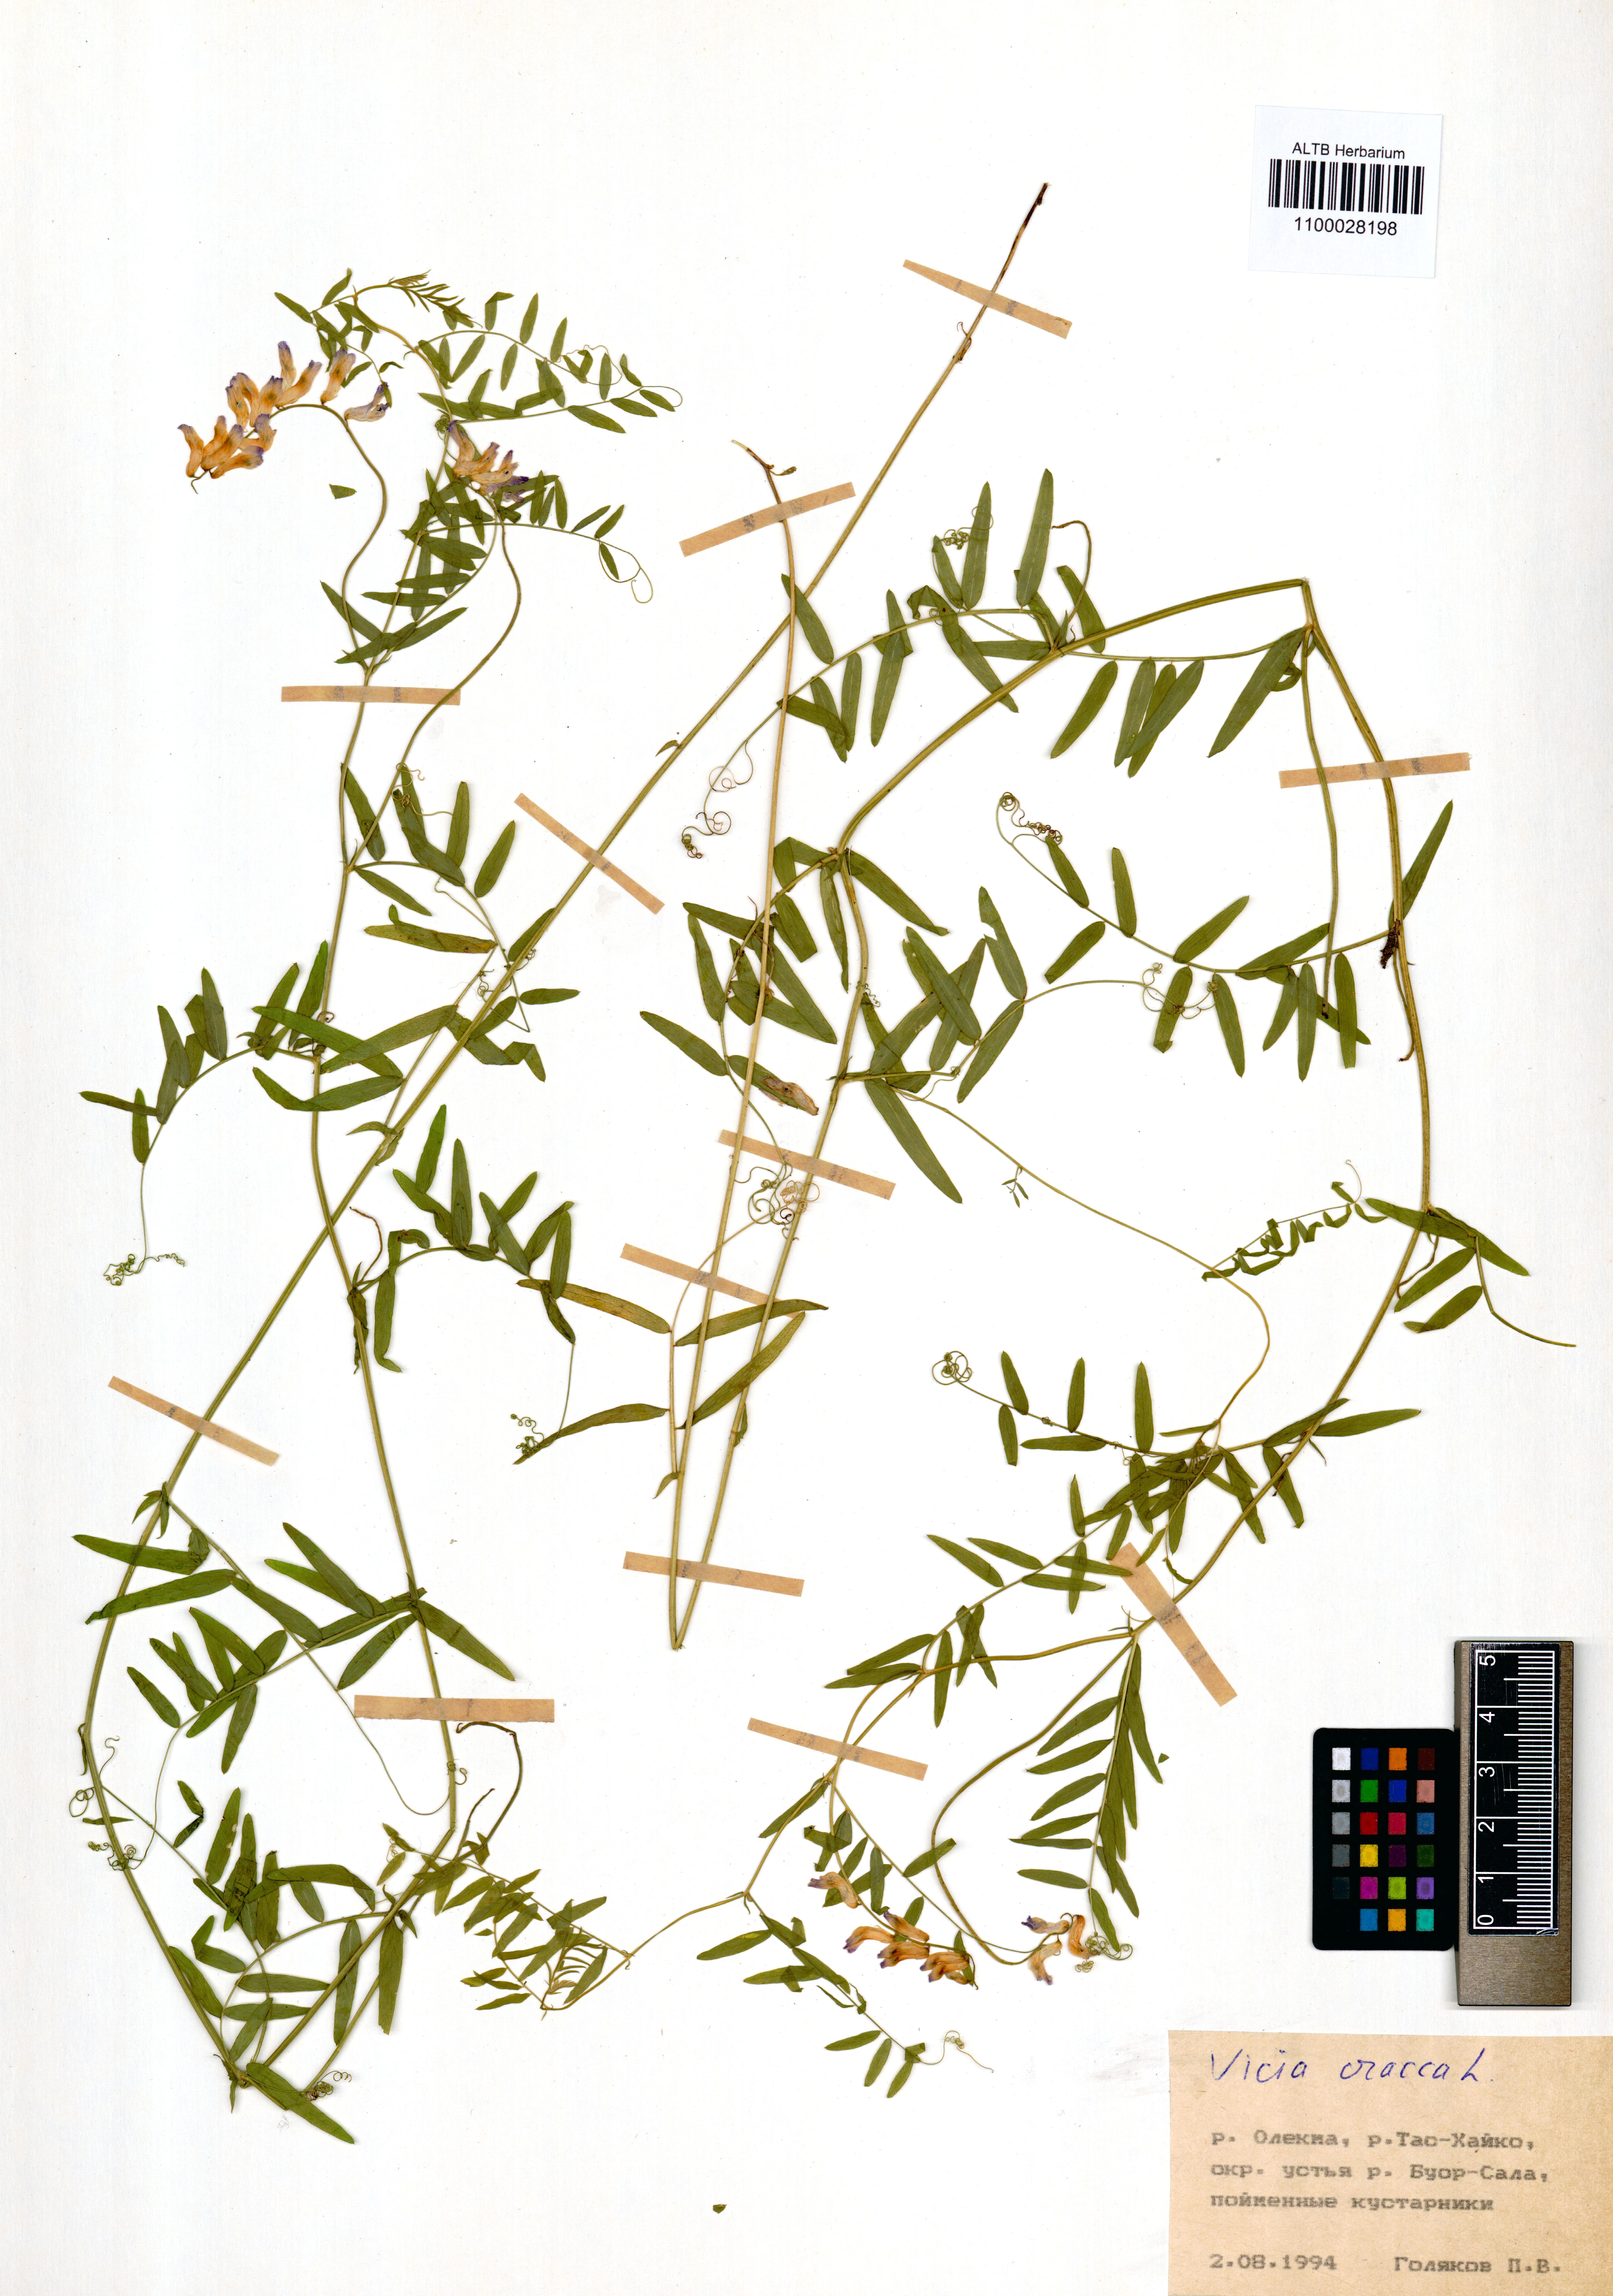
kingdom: Plantae
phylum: Tracheophyta
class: Magnoliopsida
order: Fabales
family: Fabaceae
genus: Vicia
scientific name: Vicia cracca
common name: Bird vetch
